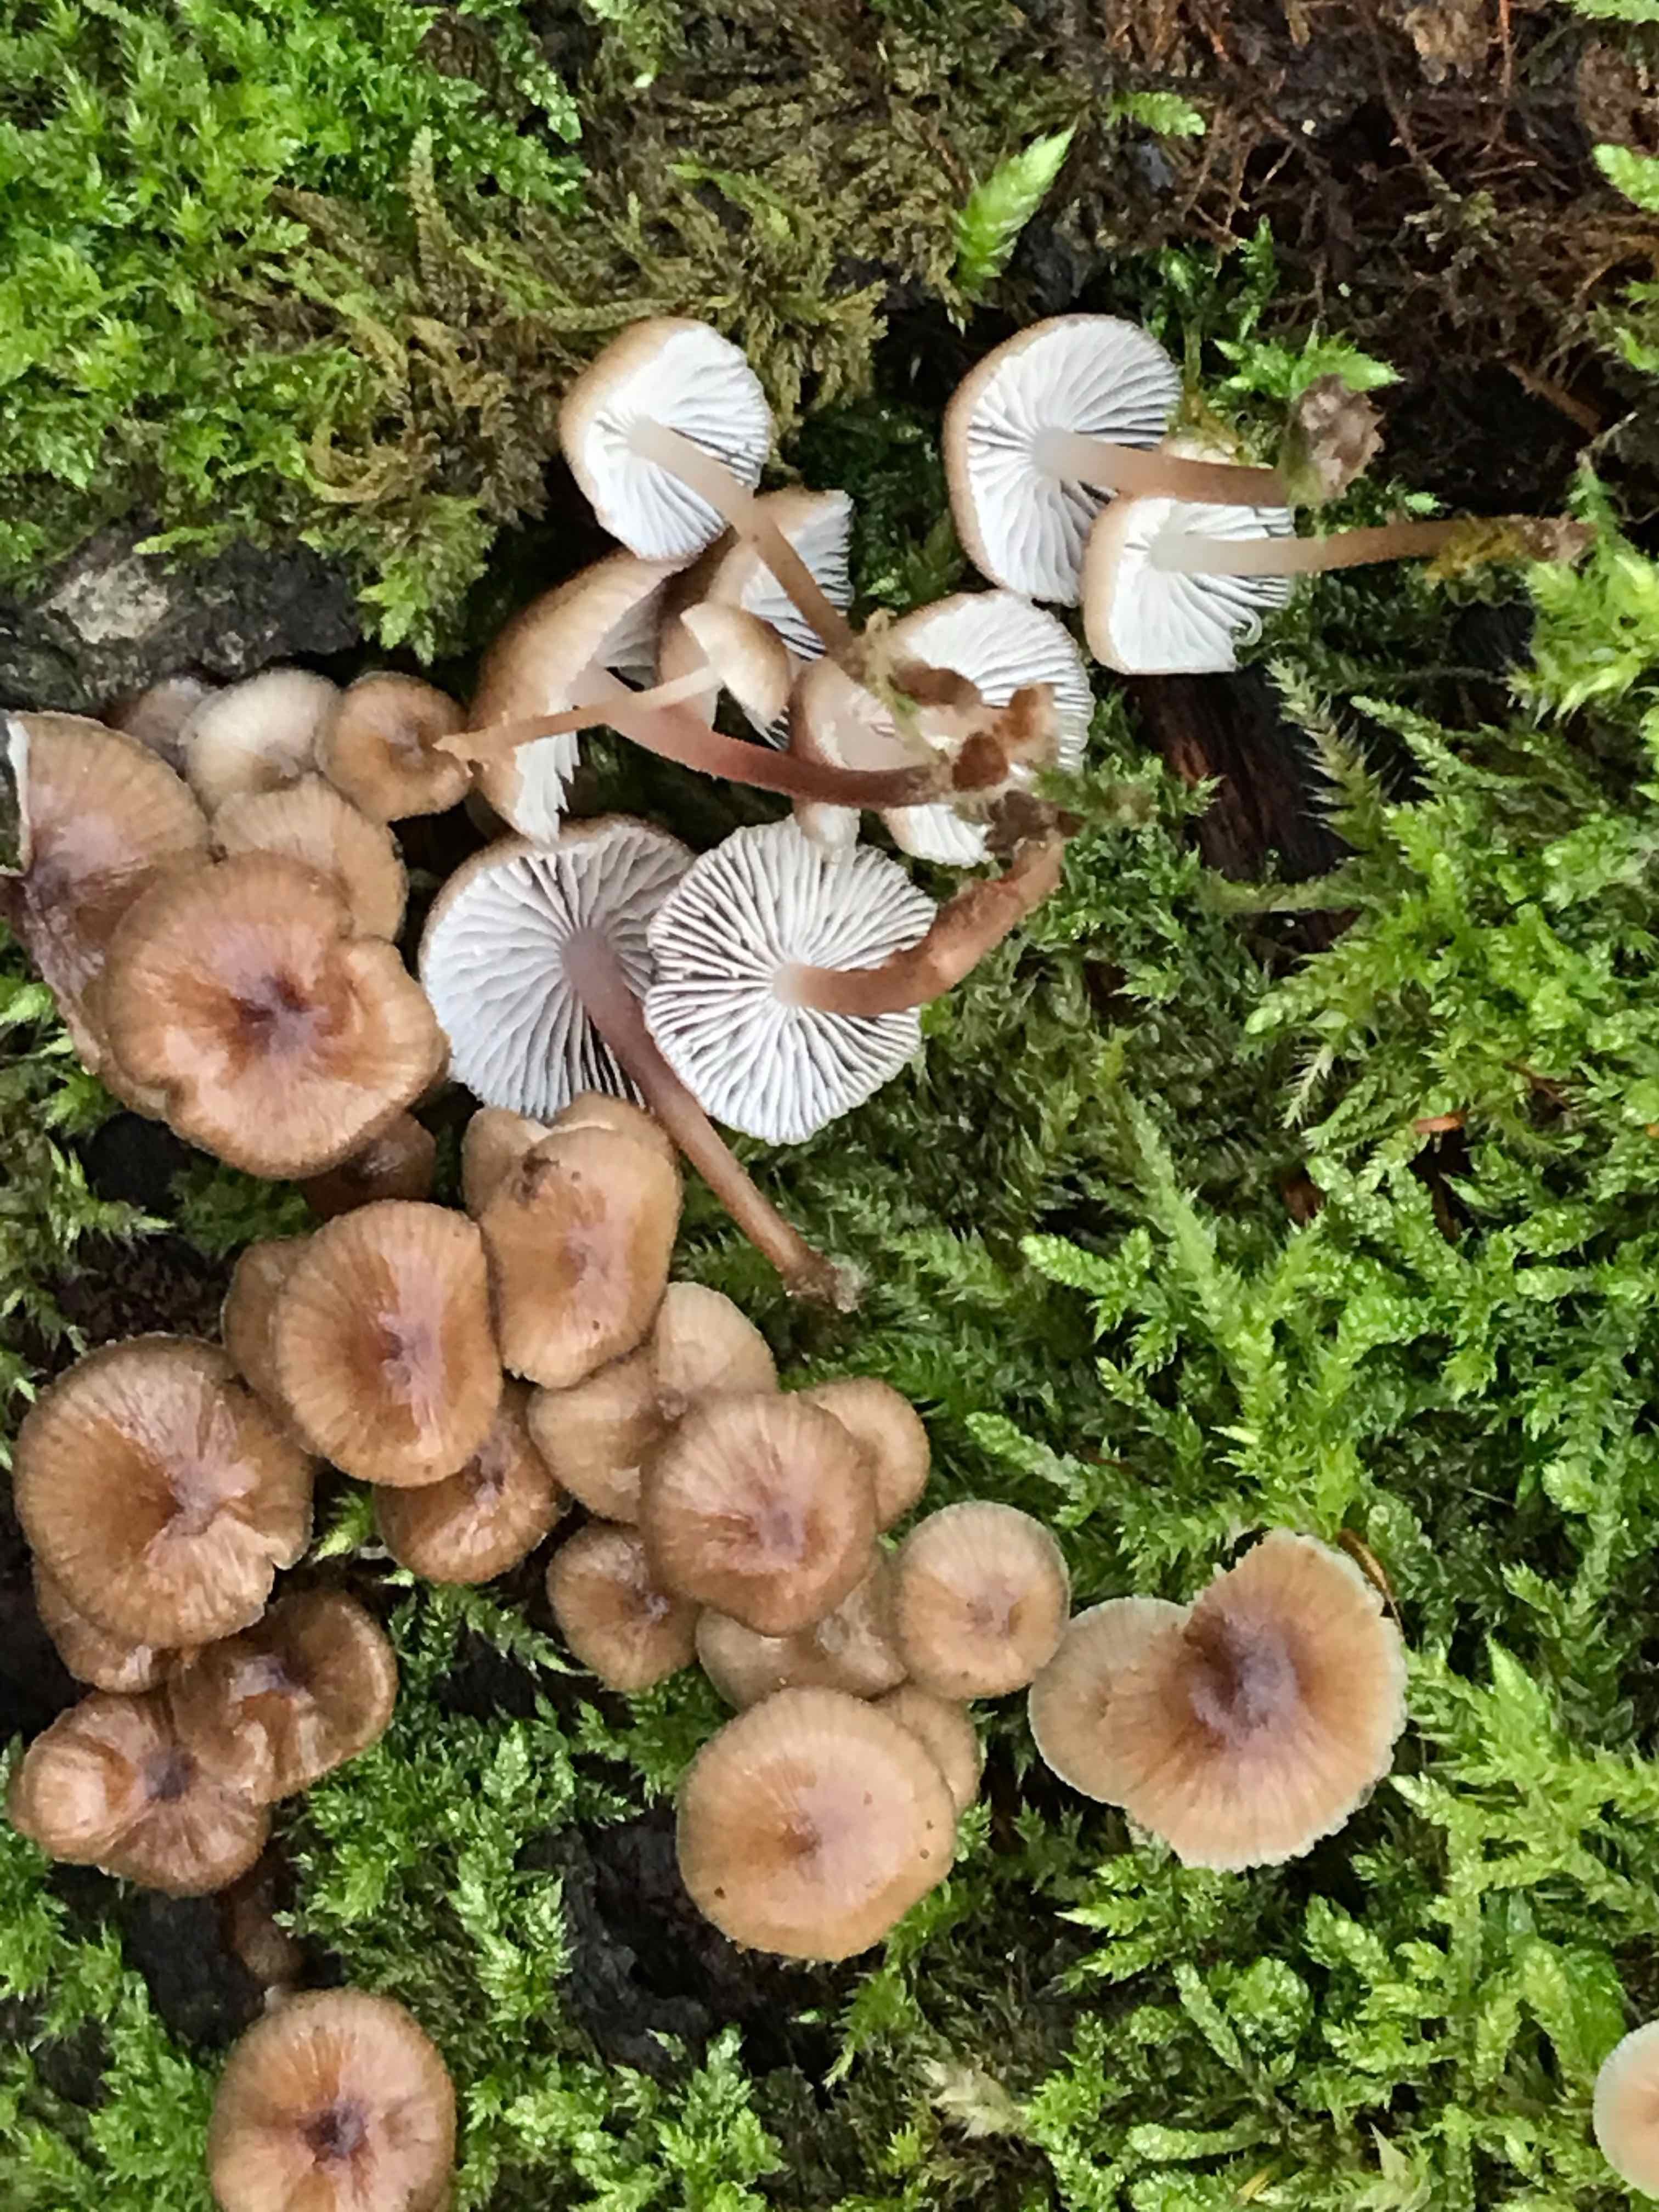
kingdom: Fungi
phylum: Basidiomycota
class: Agaricomycetes
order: Agaricales
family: Mycenaceae
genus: Mycena
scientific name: Mycena tintinnabulum
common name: vinter-huesvamp
